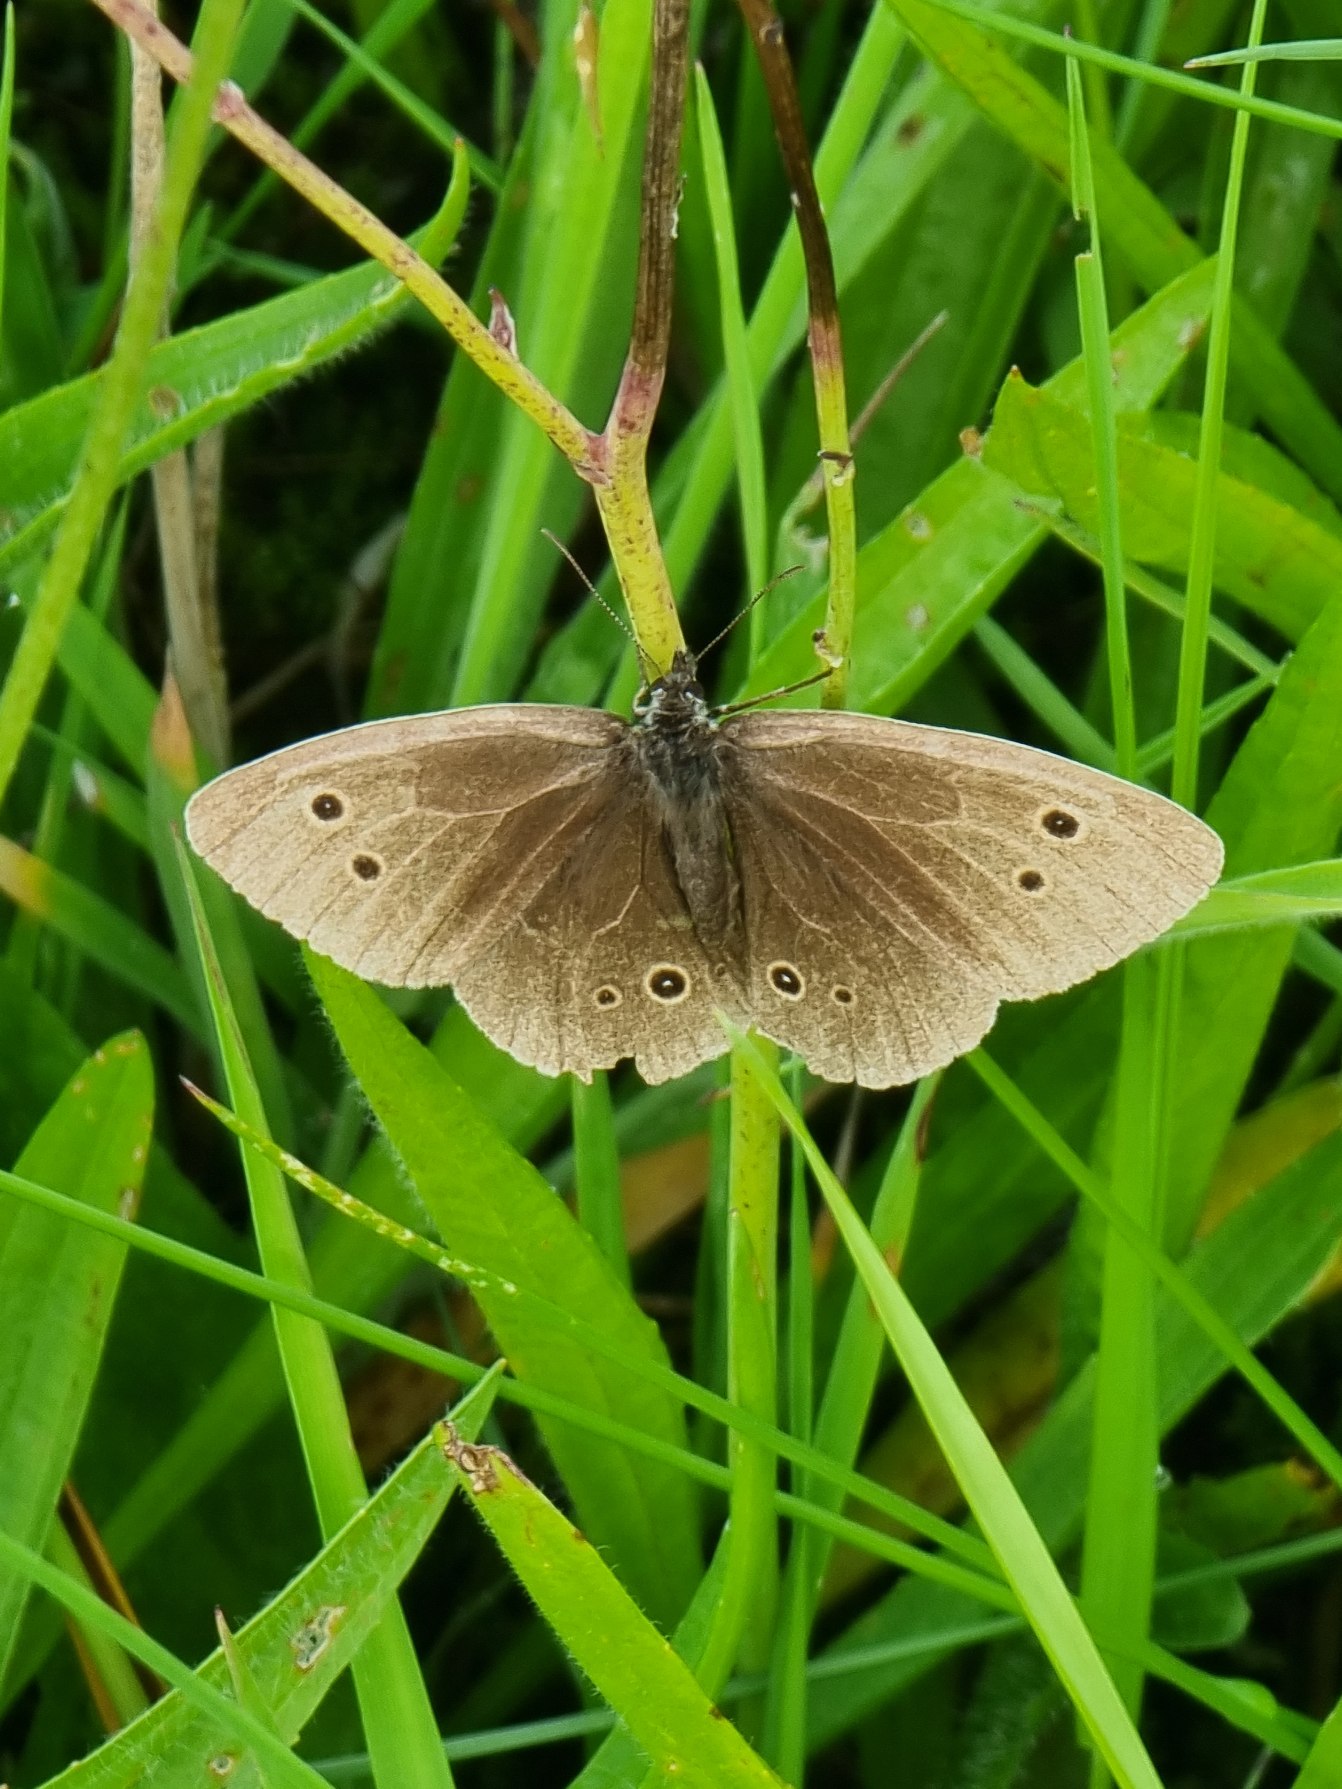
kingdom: Animalia
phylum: Arthropoda
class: Insecta
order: Lepidoptera
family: Nymphalidae
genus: Aphantopus
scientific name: Aphantopus hyperantus
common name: Engrandøje
